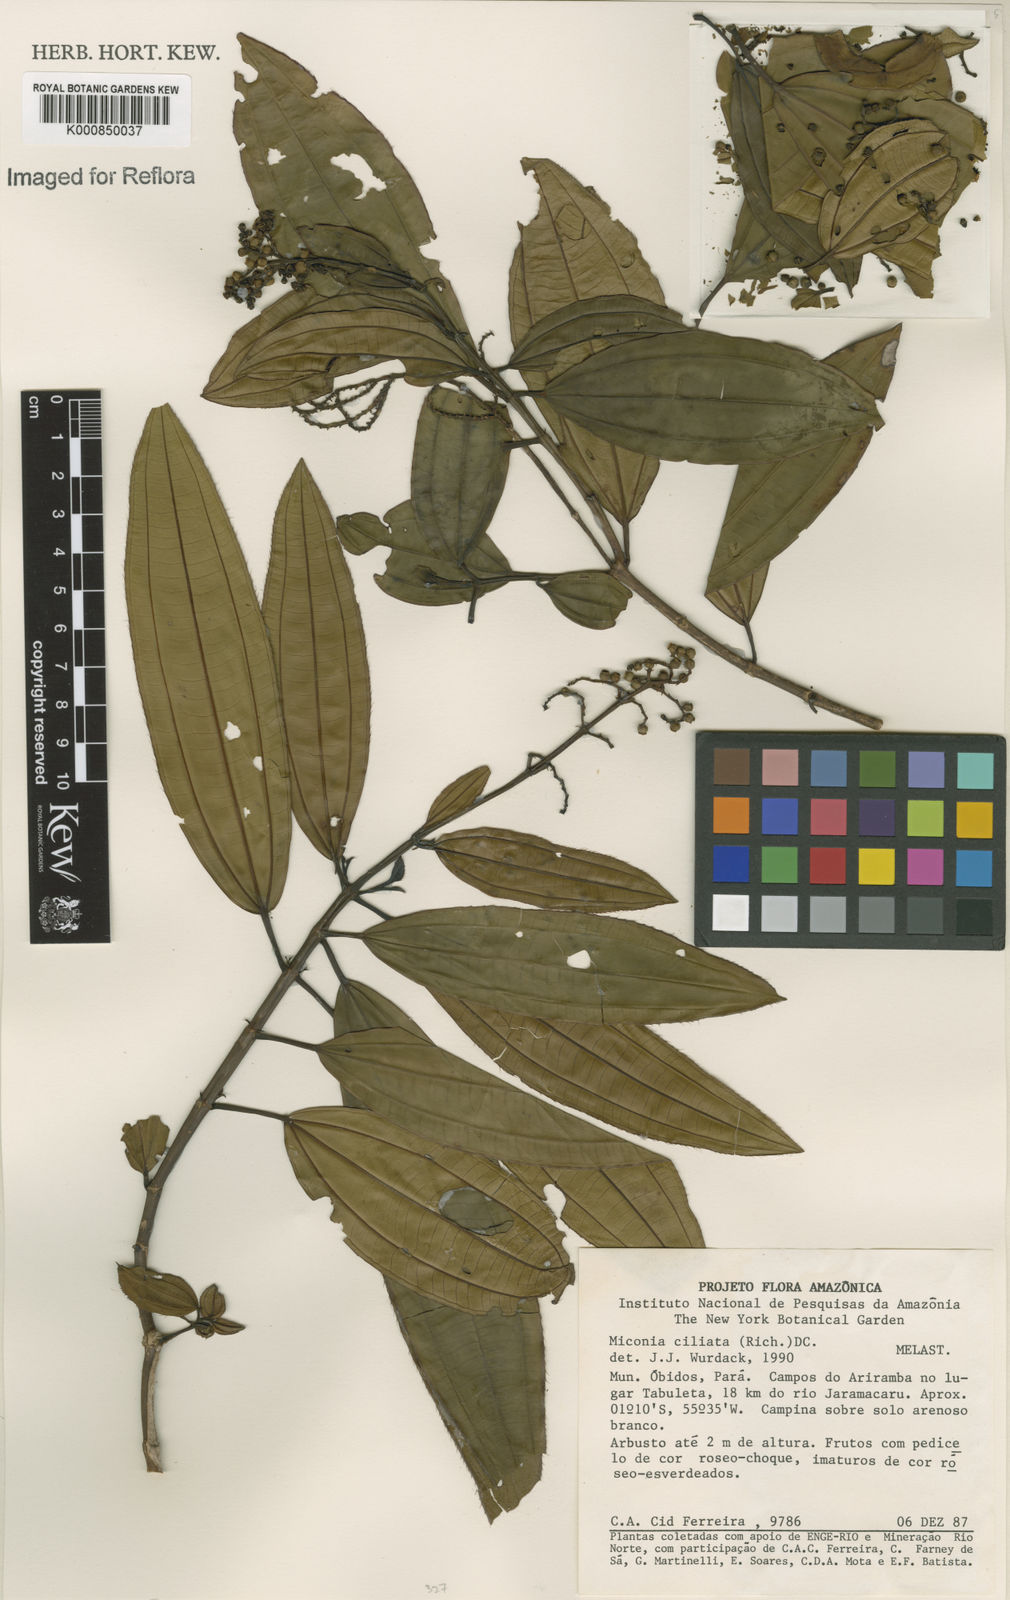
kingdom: Plantae
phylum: Tracheophyta
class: Magnoliopsida
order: Myrtales
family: Melastomataceae
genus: Miconia
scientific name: Miconia ciliata
